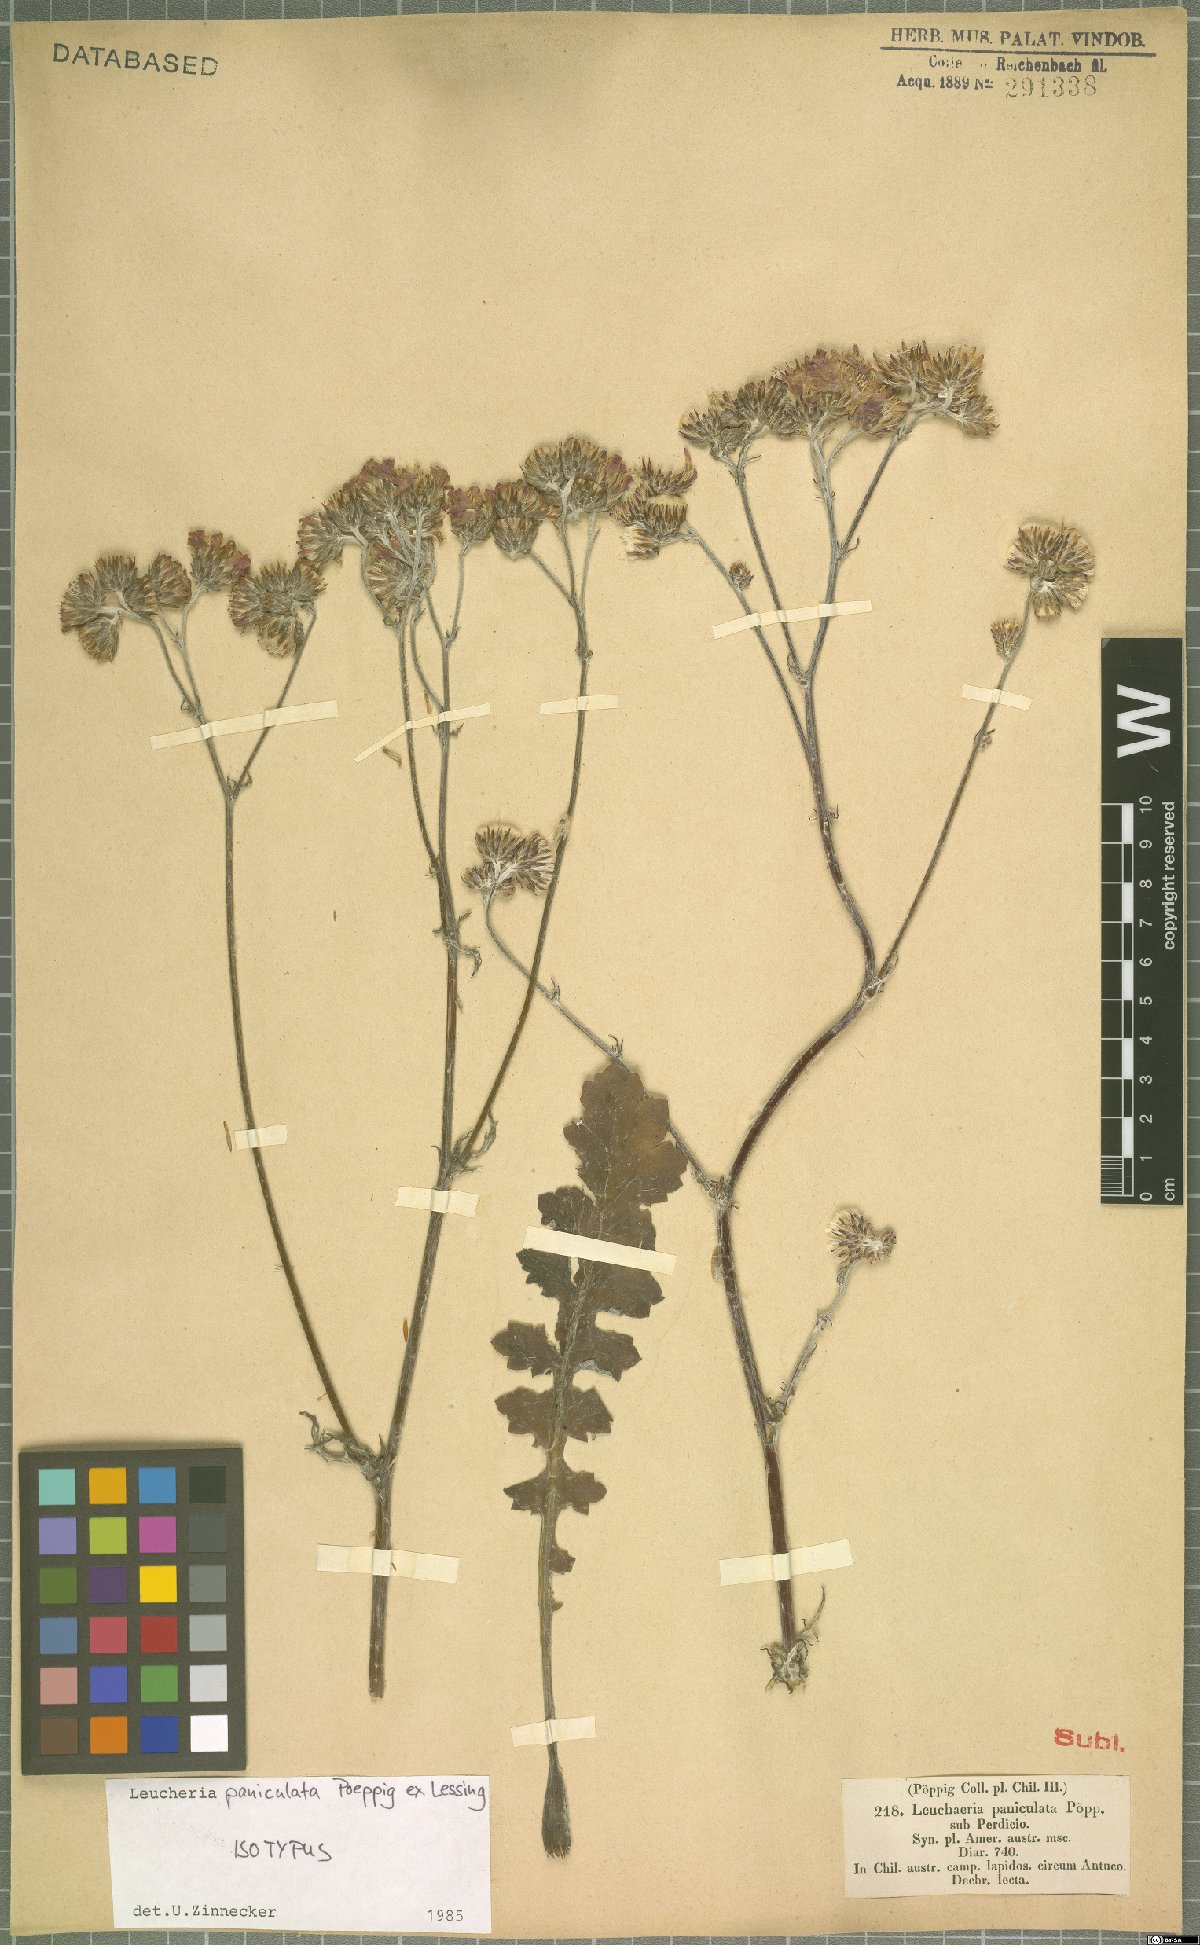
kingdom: Plantae
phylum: Tracheophyta
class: Magnoliopsida
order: Asterales
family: Asteraceae
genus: Leucheria
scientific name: Leucheria paniculata
